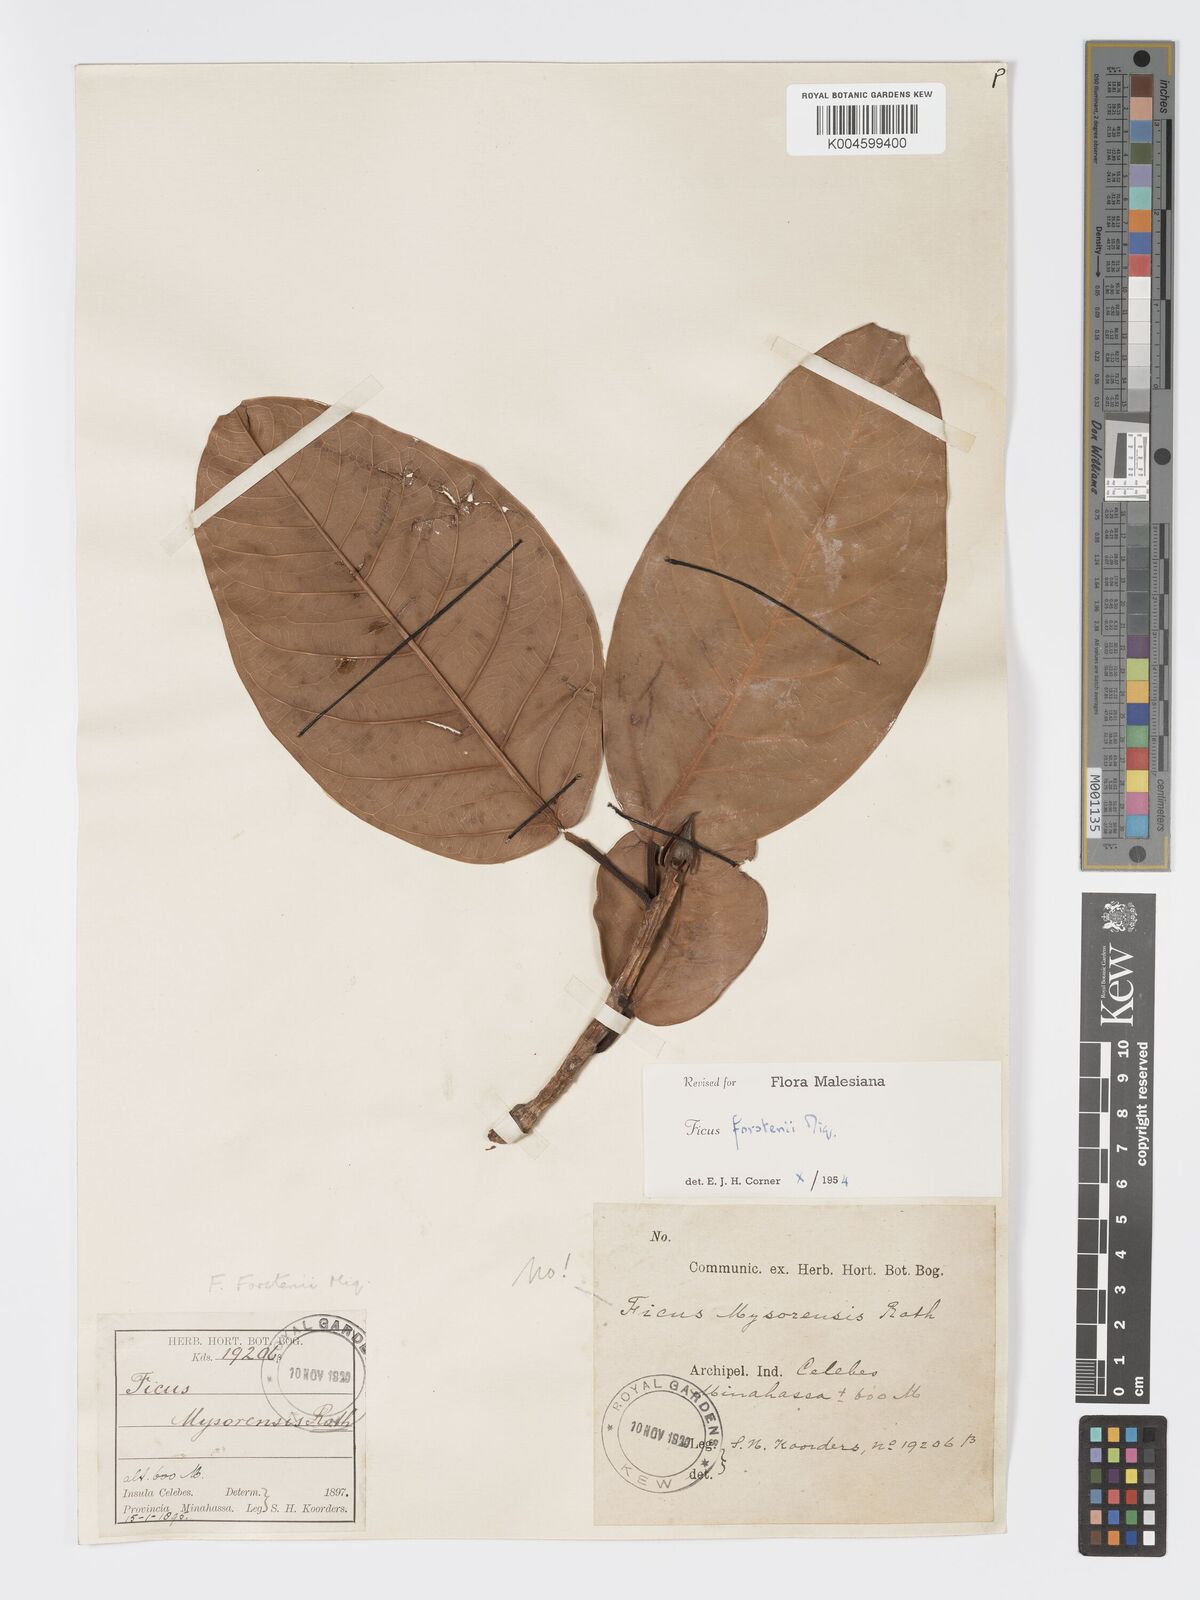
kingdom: Plantae
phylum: Tracheophyta
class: Magnoliopsida
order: Rosales
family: Moraceae
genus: Ficus
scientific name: Ficus forstenii
